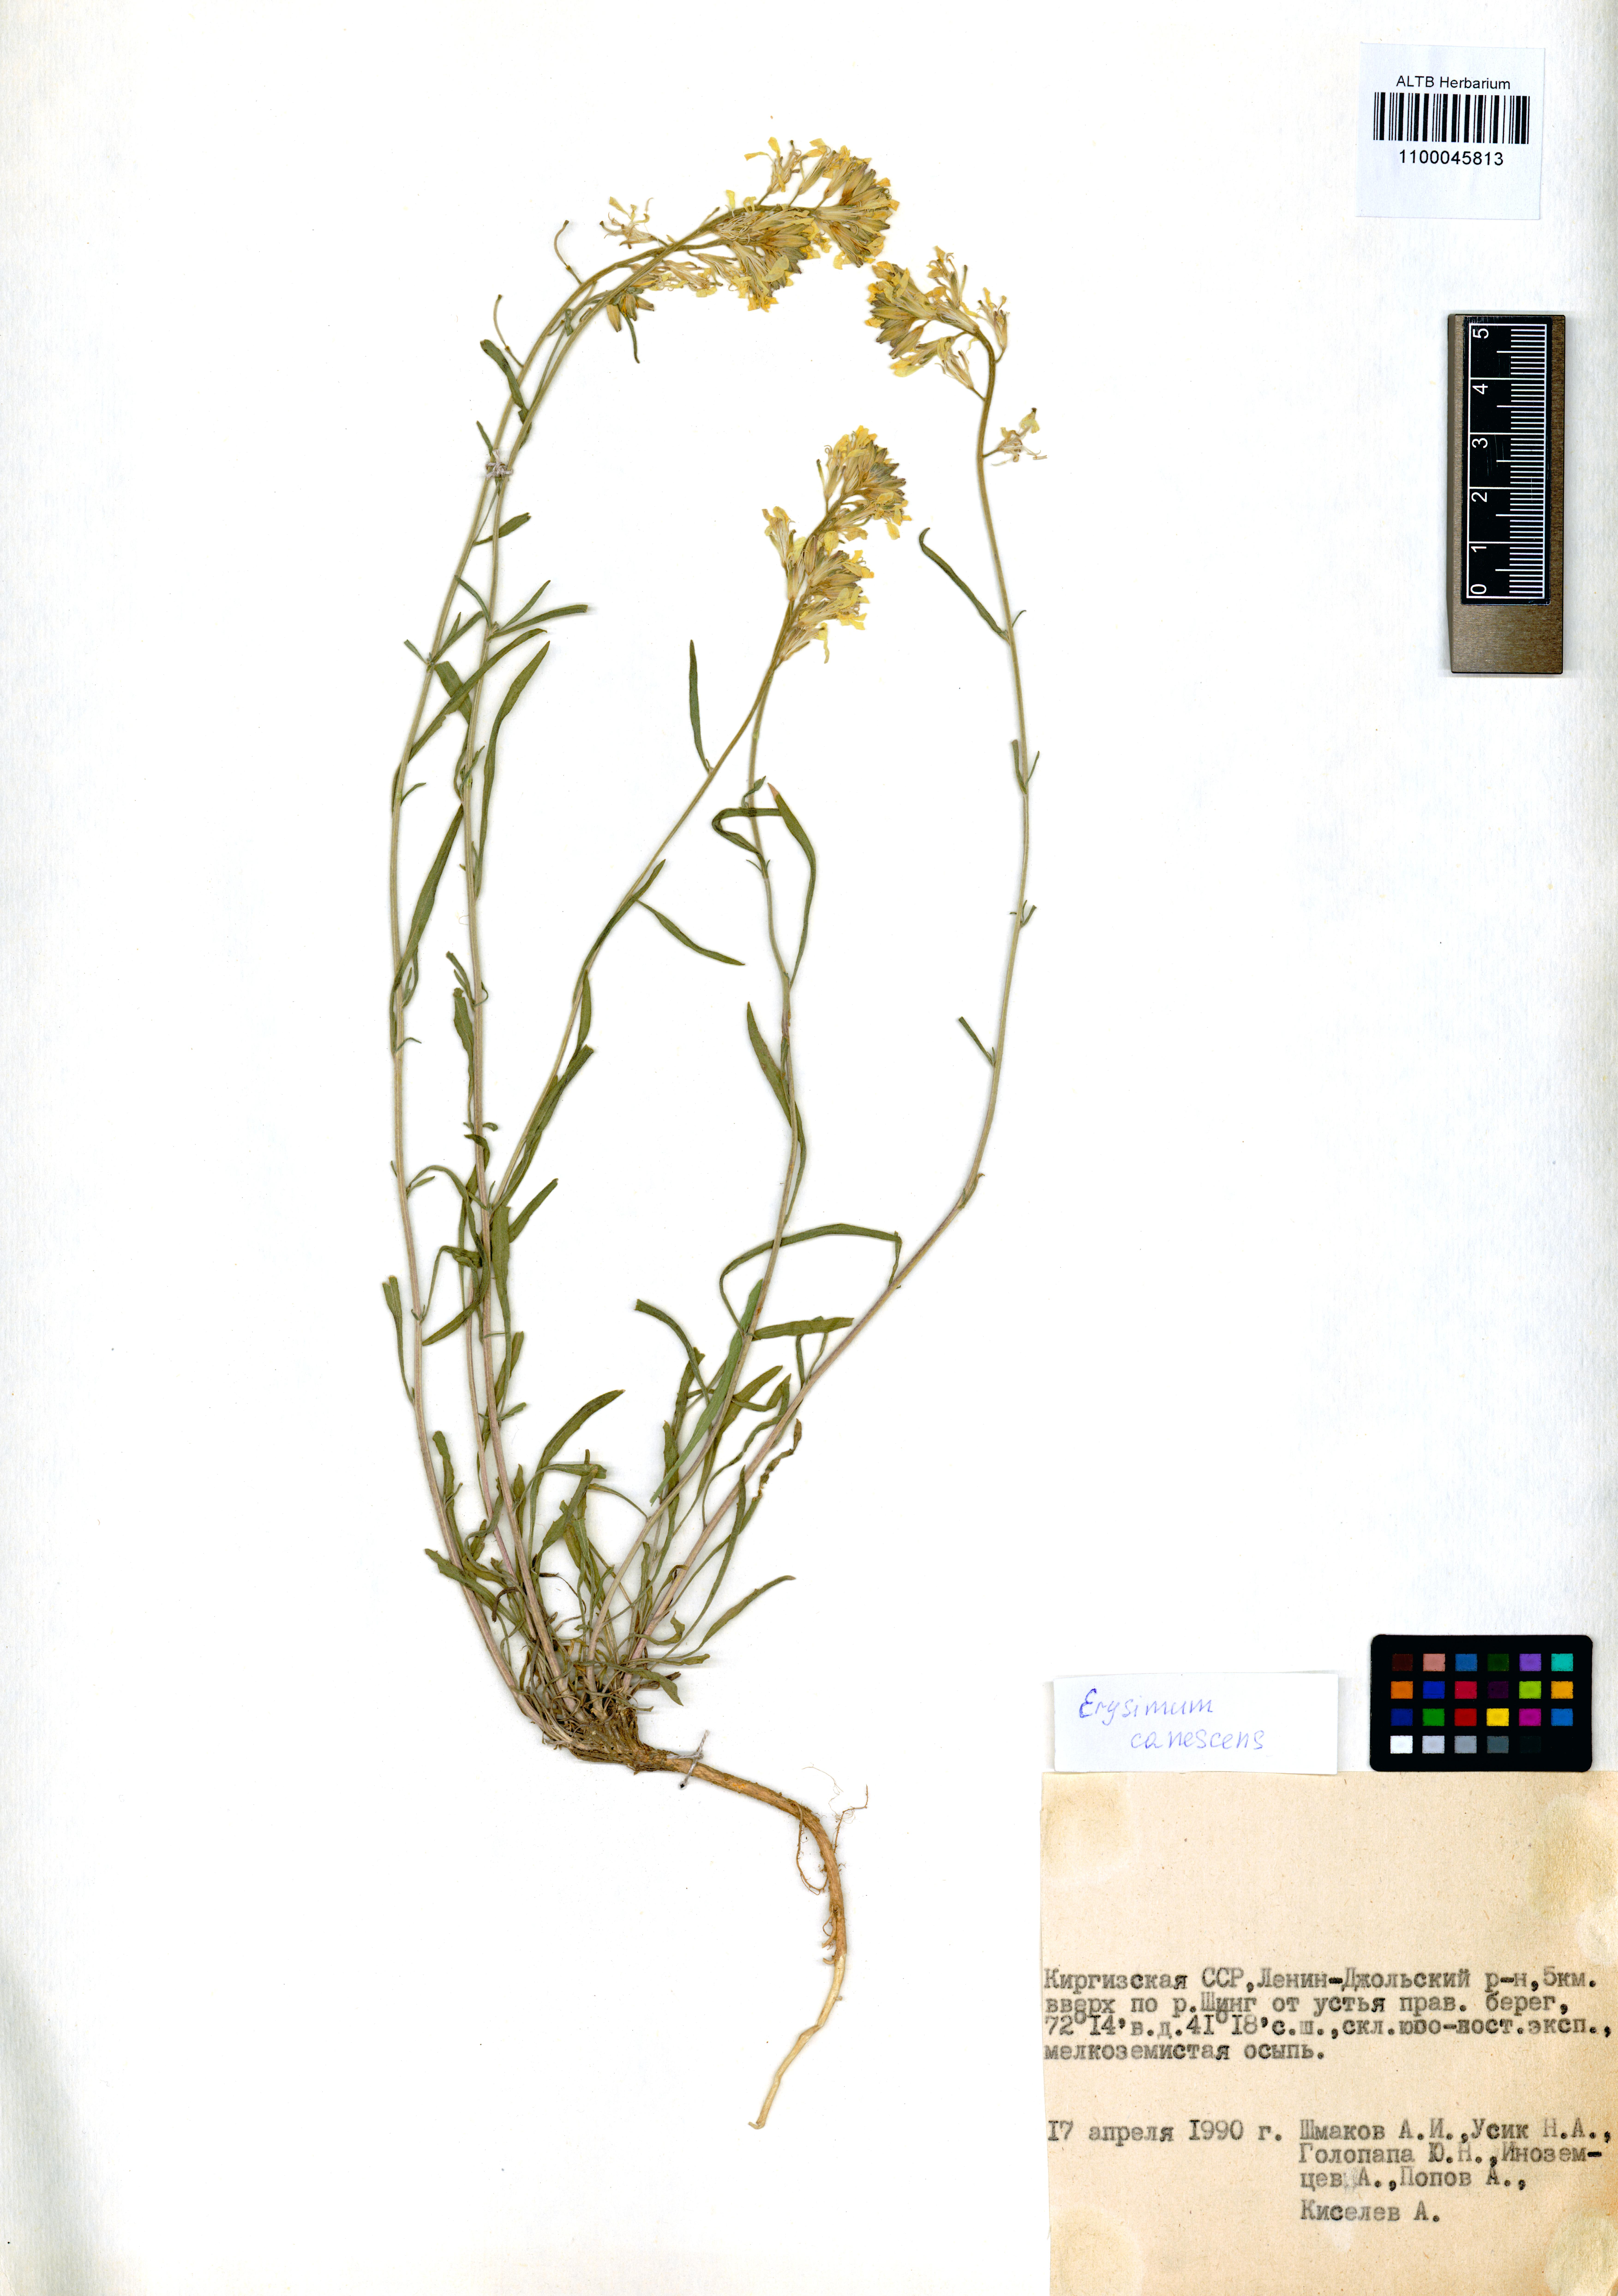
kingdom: Plantae
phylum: Tracheophyta
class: Magnoliopsida
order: Brassicales
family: Brassicaceae
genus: Erysimum
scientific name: Erysimum canescens
